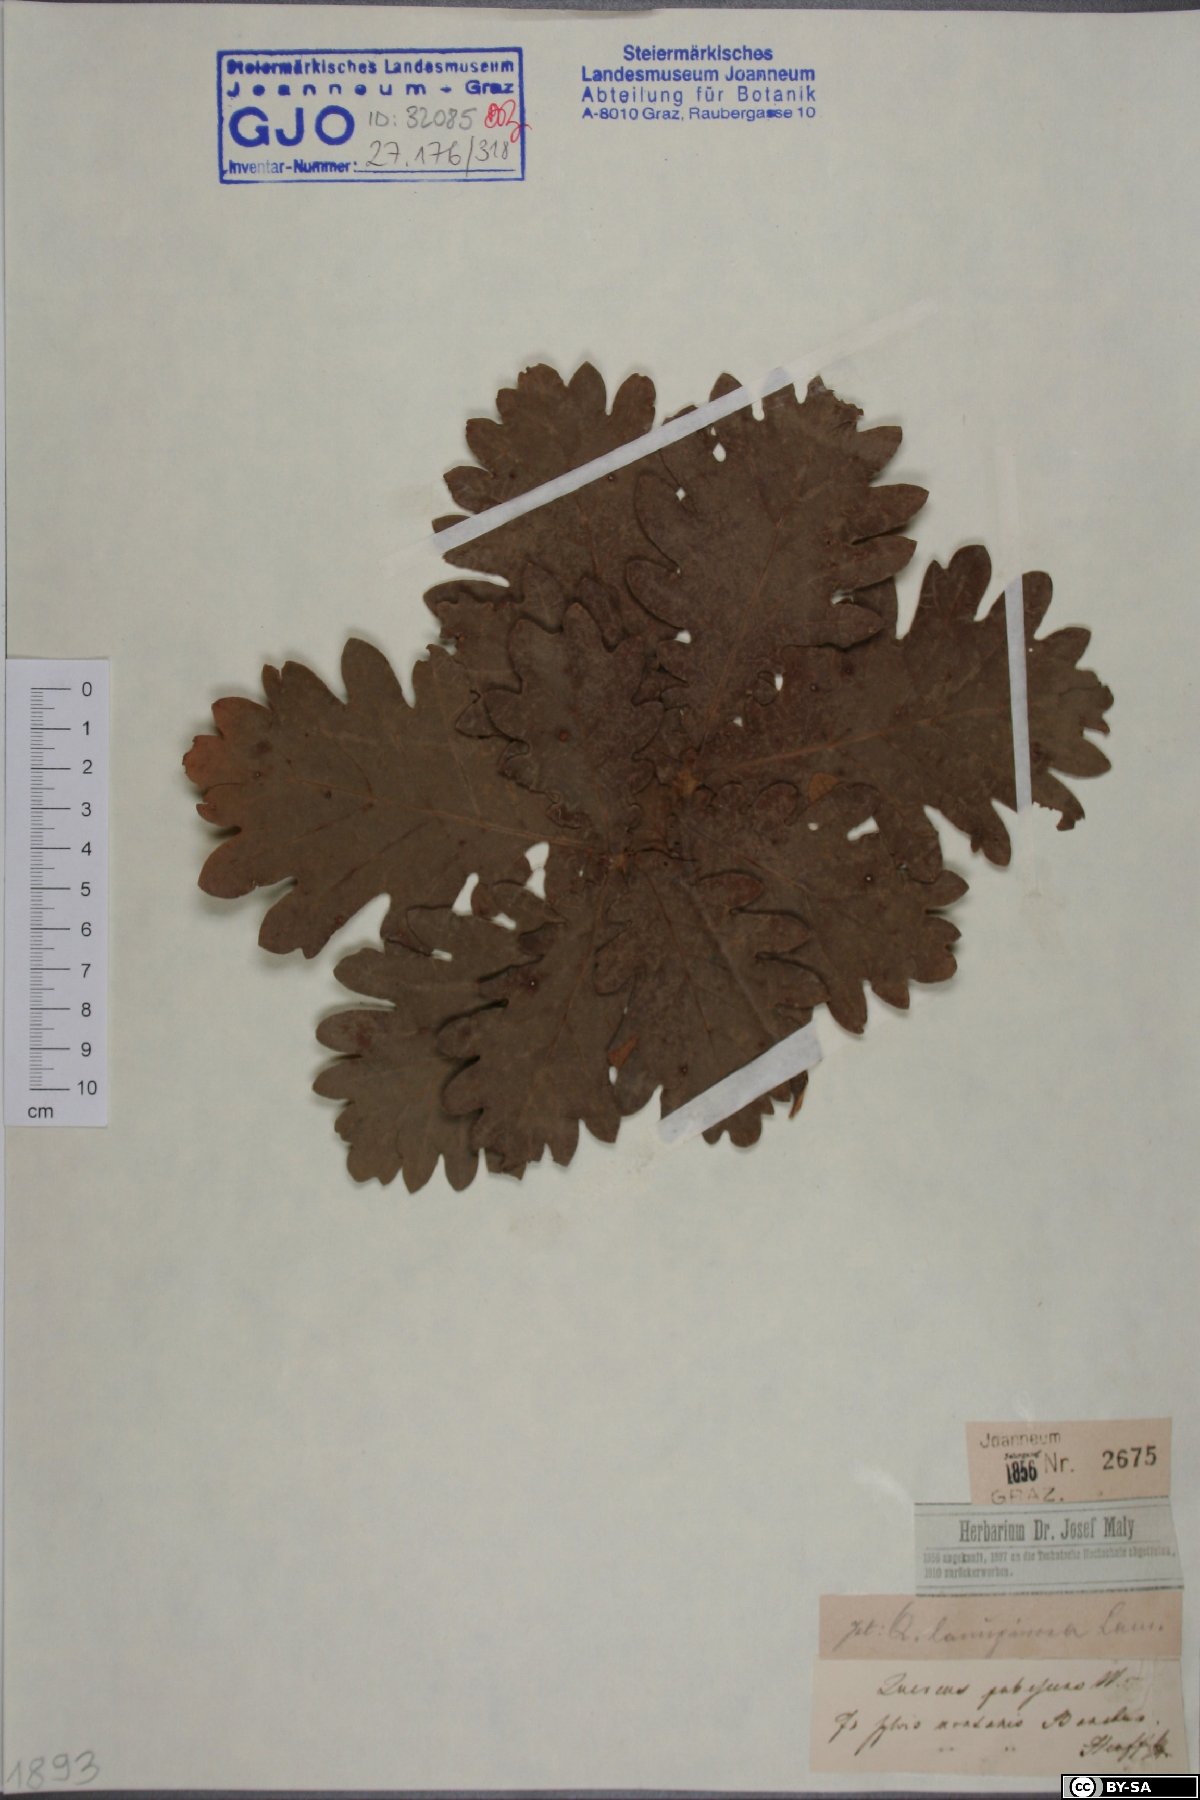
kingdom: Plantae
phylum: Tracheophyta
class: Magnoliopsida
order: Fagales
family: Fagaceae
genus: Quercus
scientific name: Quercus pubescens
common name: Downy oak
